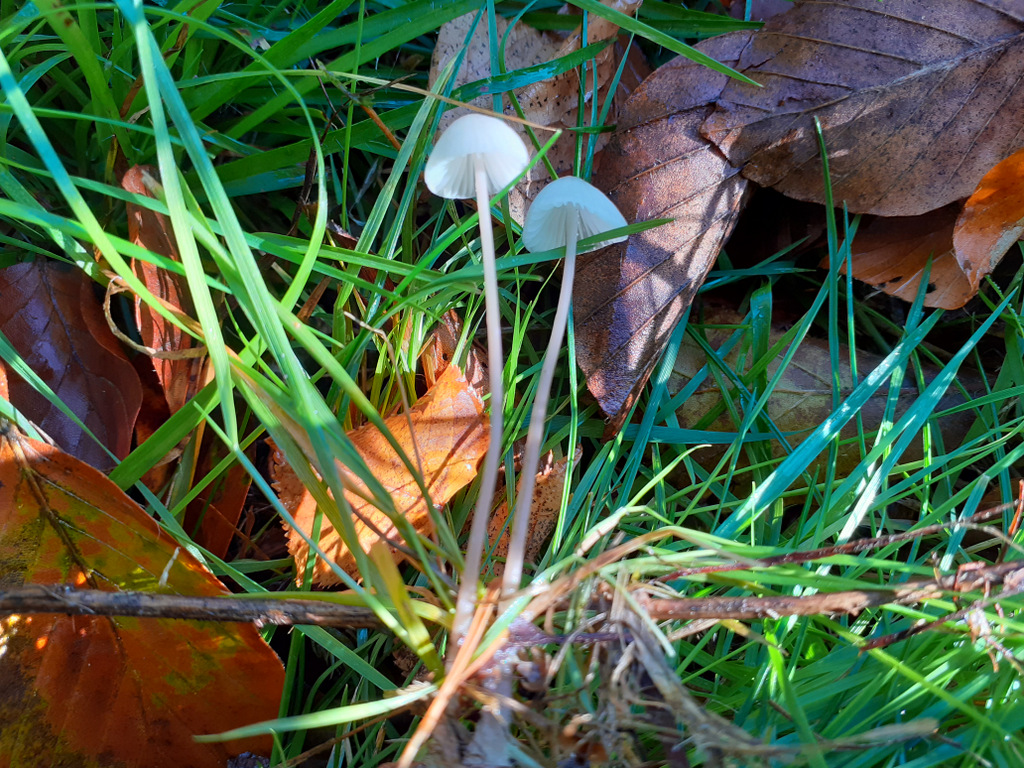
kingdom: Fungi
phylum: Basidiomycota
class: Agaricomycetes
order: Agaricales
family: Mycenaceae
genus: Mycena
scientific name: Mycena
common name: huesvamp
